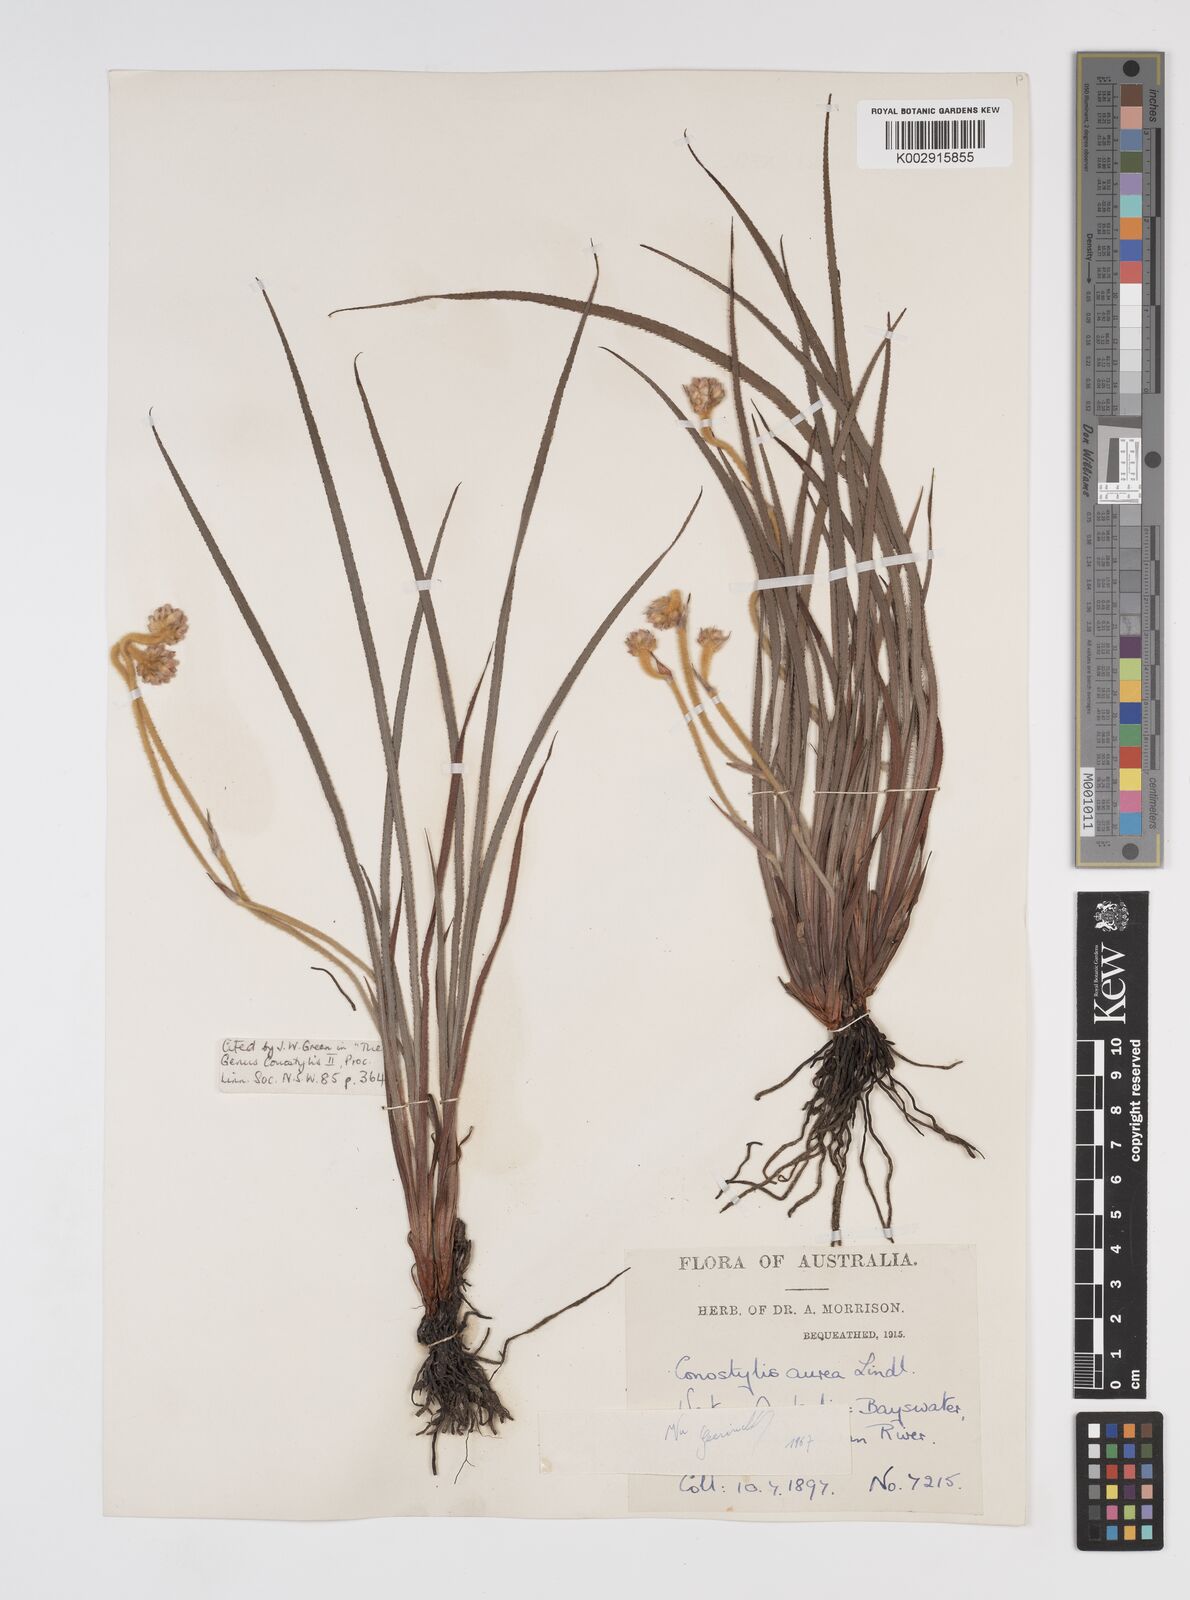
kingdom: Plantae
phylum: Tracheophyta
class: Liliopsida
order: Commelinales
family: Haemodoraceae
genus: Conostylis
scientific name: Conostylis aurea
